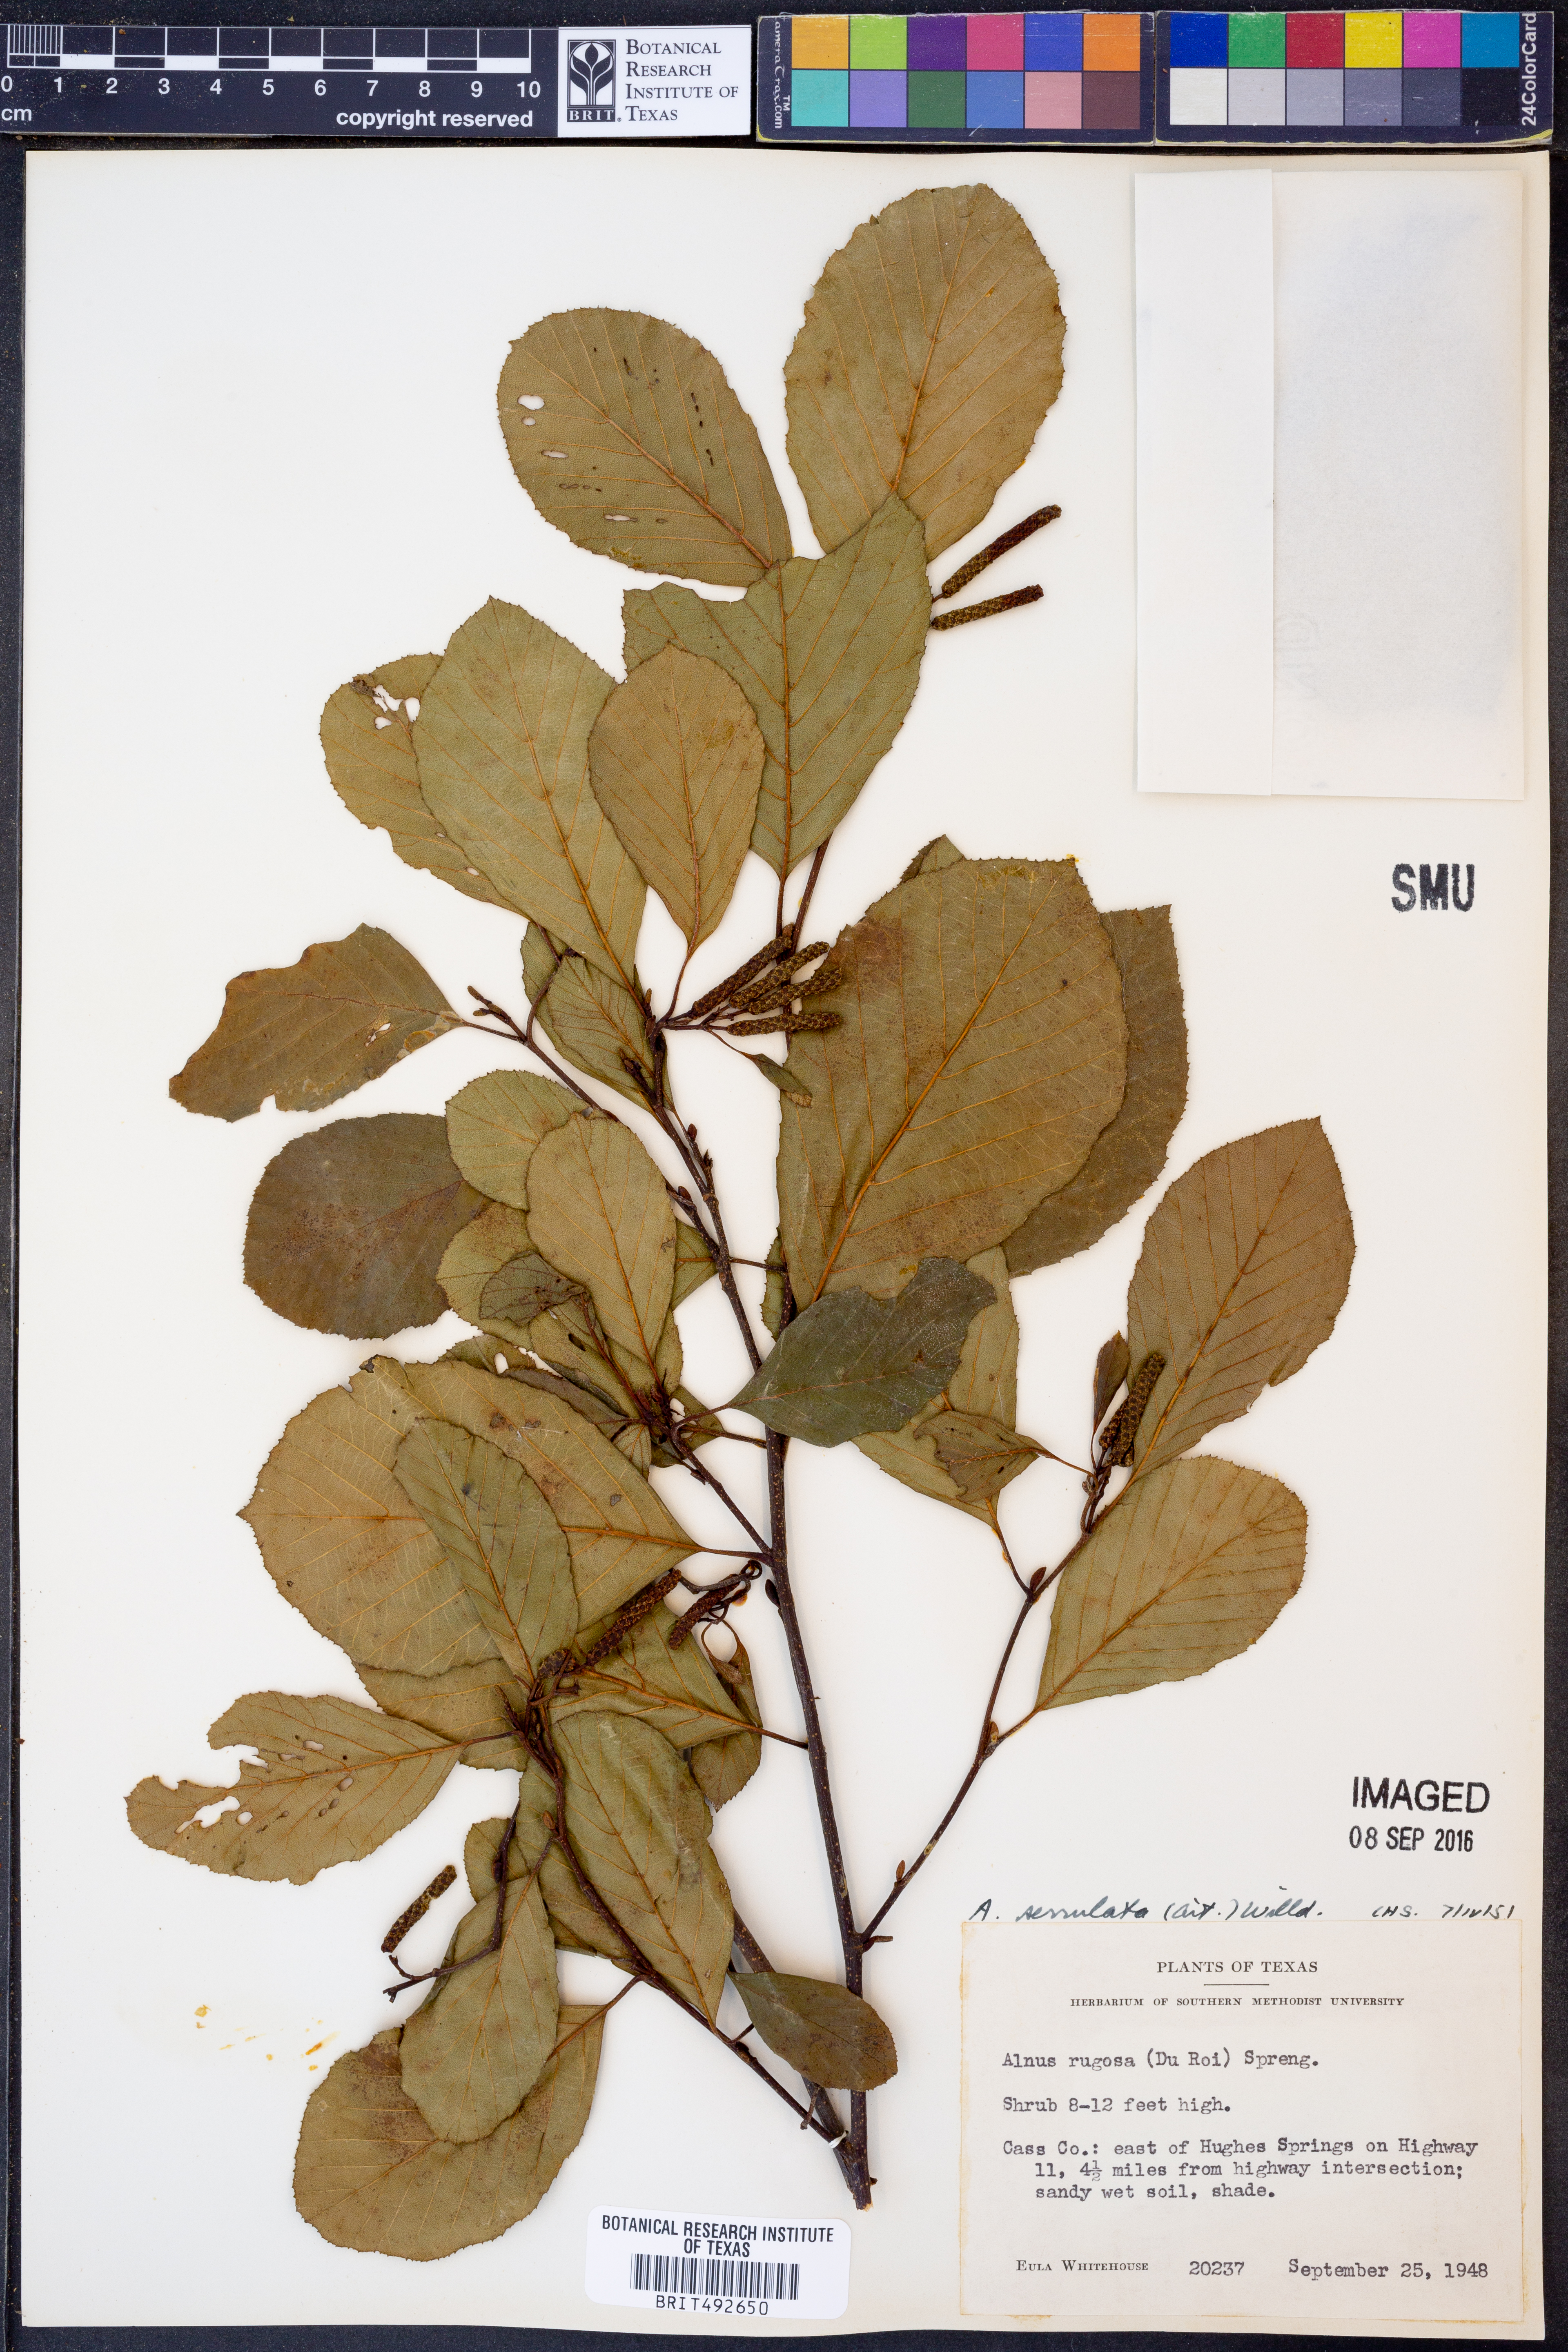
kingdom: Plantae
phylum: Tracheophyta
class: Magnoliopsida
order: Fagales
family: Betulaceae
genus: Alnus
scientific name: Alnus serrulata
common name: Hazel alder
